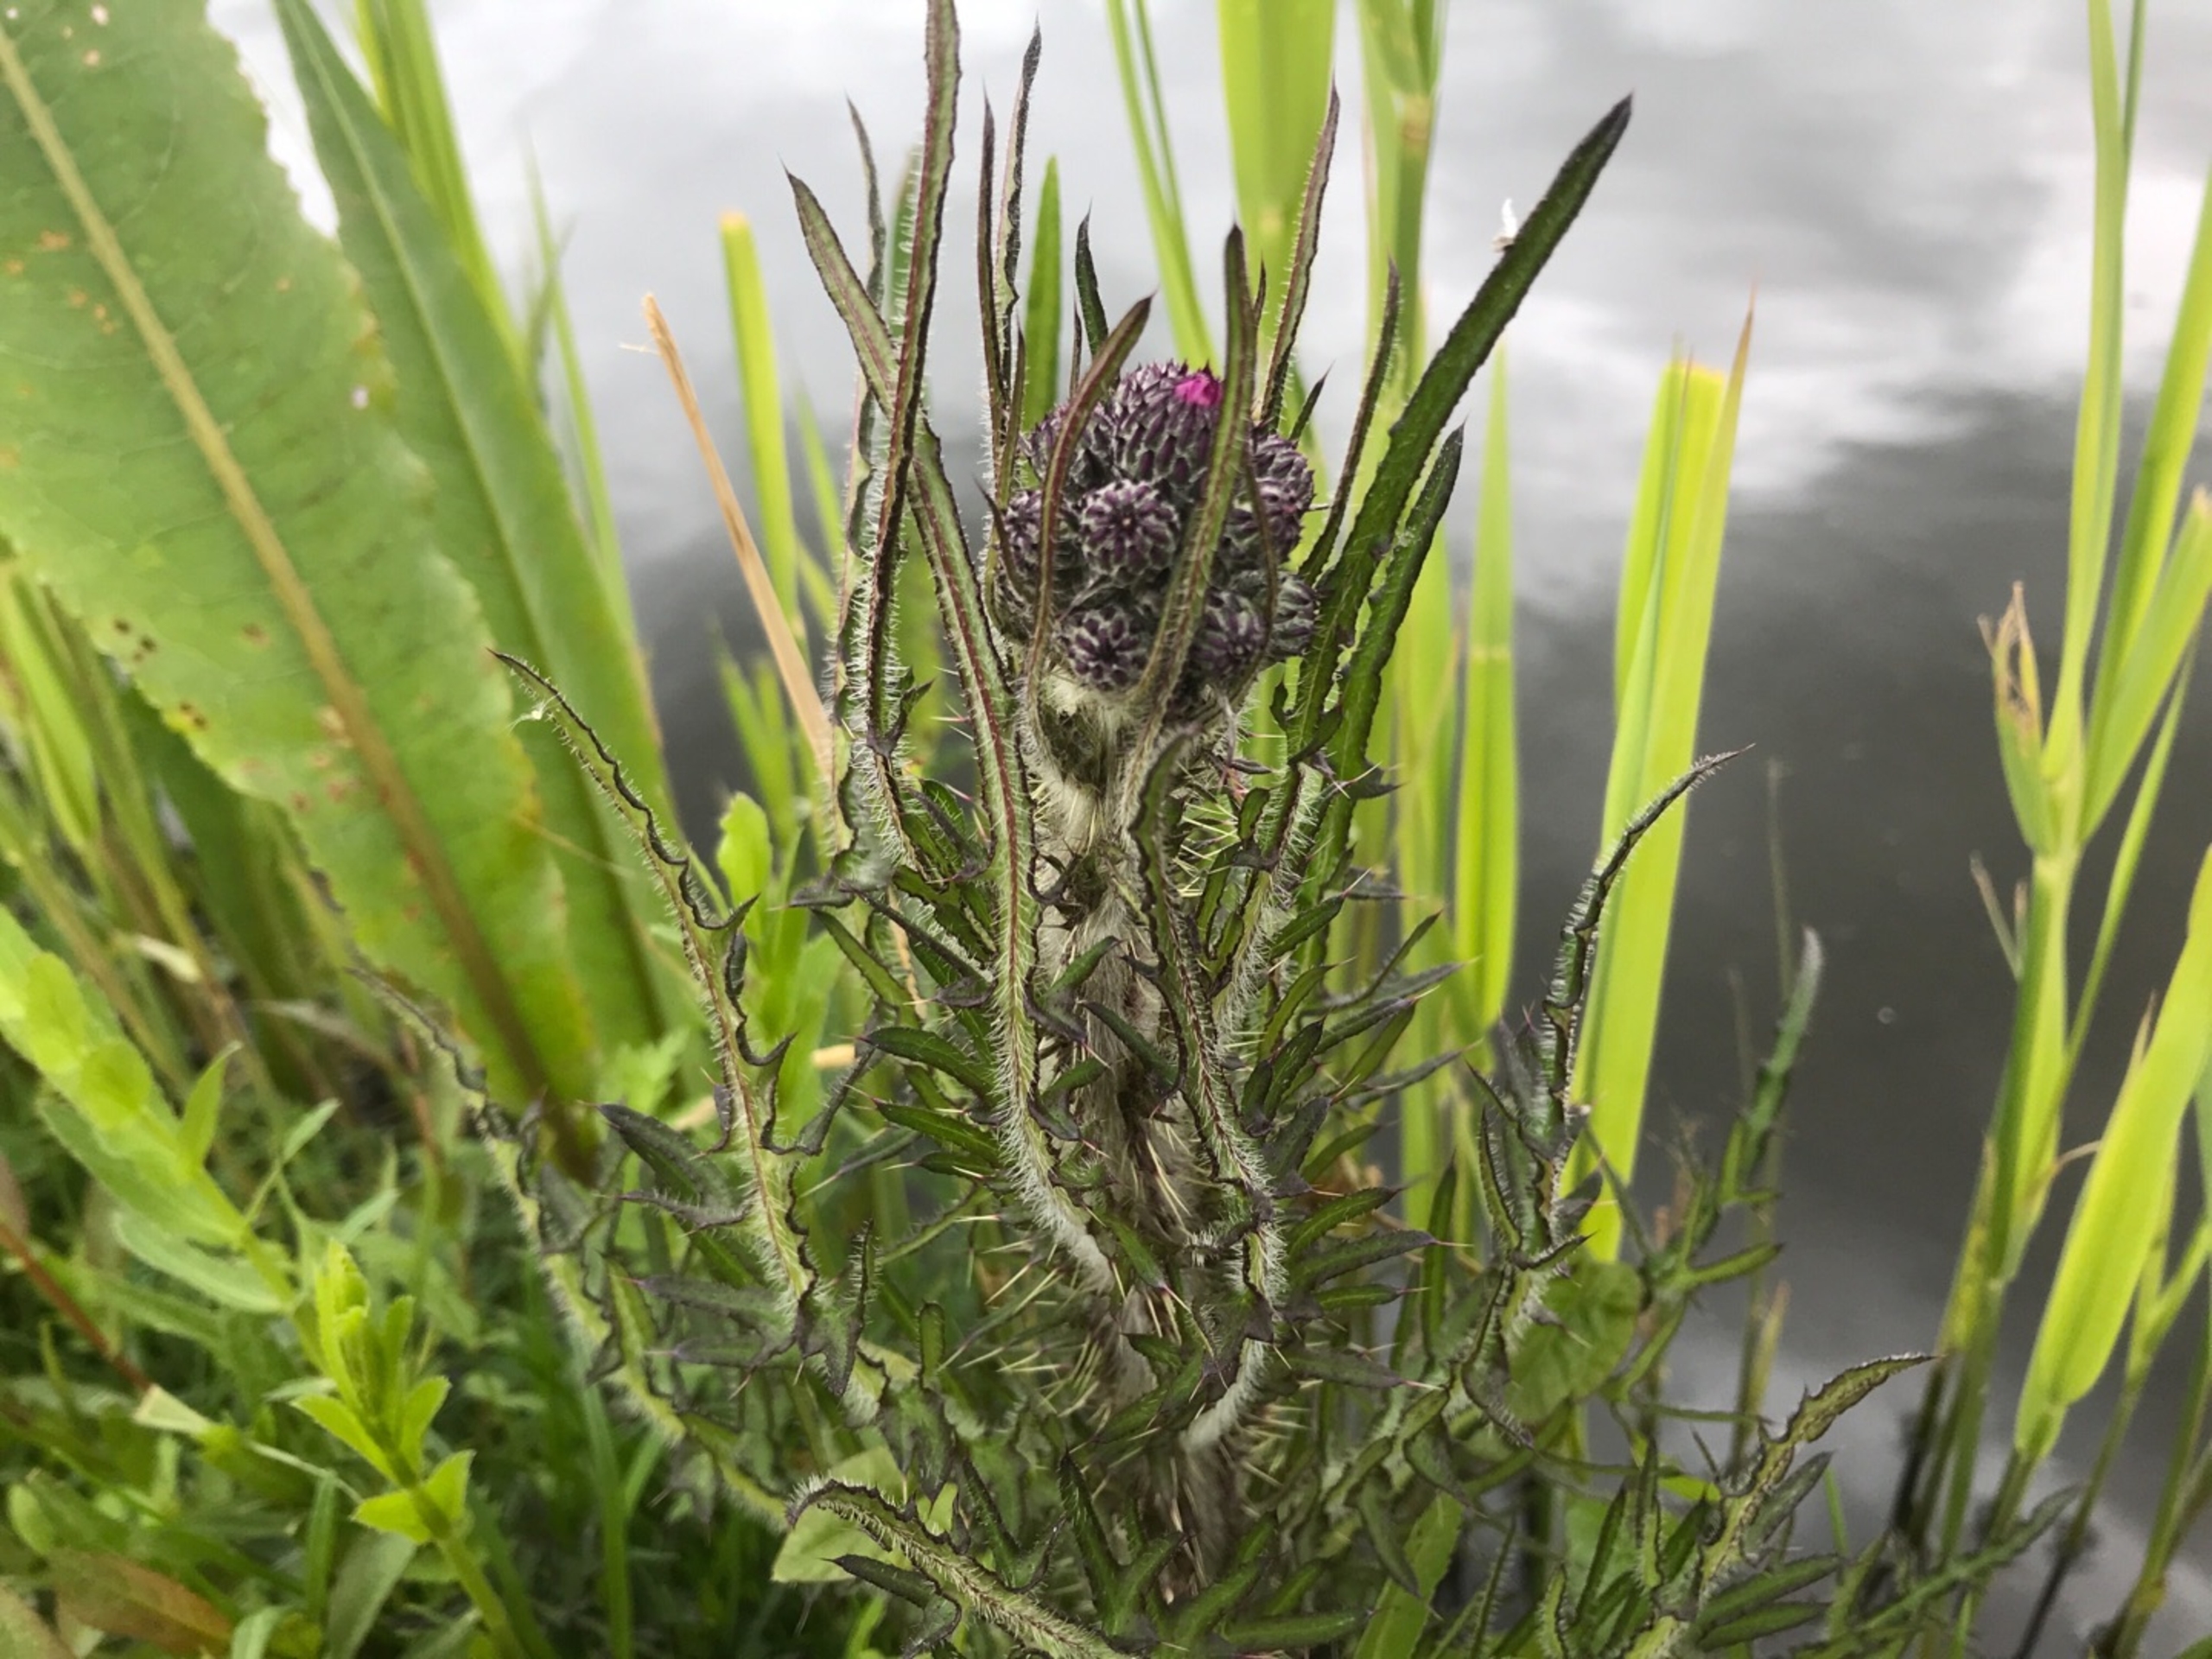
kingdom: Plantae
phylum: Tracheophyta
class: Magnoliopsida
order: Asterales
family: Asteraceae
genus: Cirsium
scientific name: Cirsium palustre
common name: Kær-tidsel
